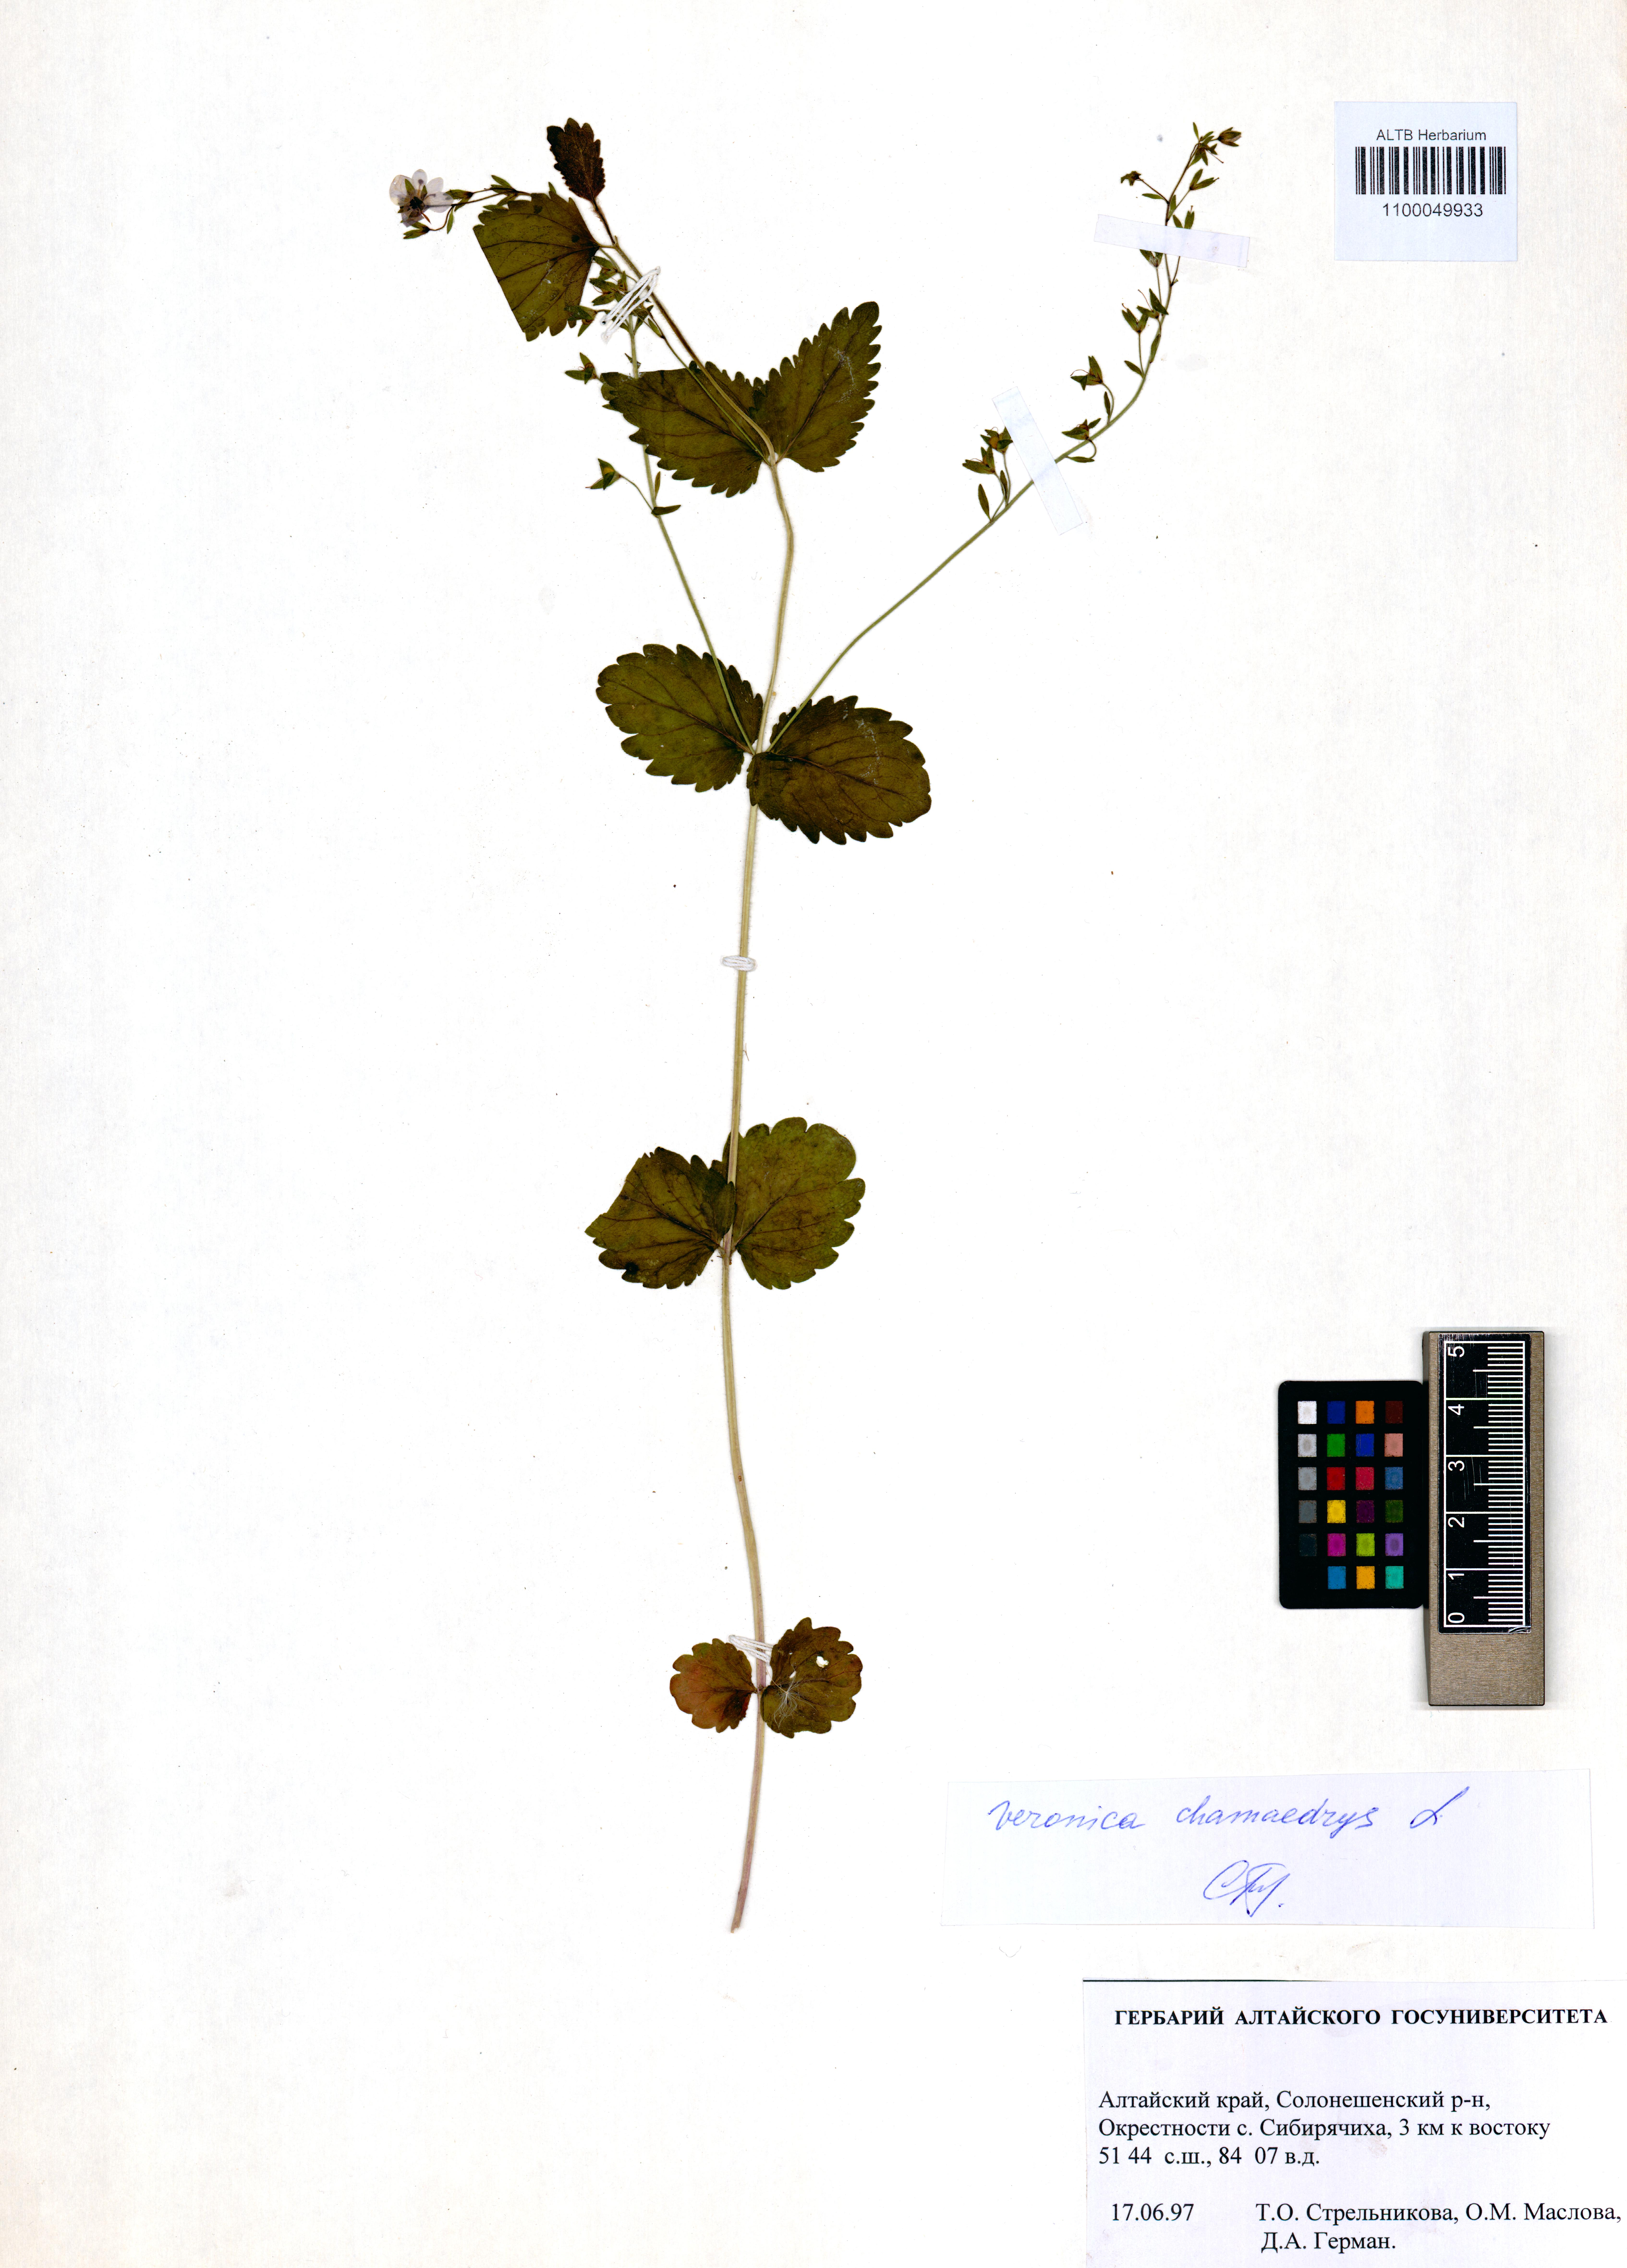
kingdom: Plantae
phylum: Tracheophyta
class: Magnoliopsida
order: Lamiales
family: Plantaginaceae
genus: Veronica
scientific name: Veronica chamaedrys
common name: Germander speedwell
